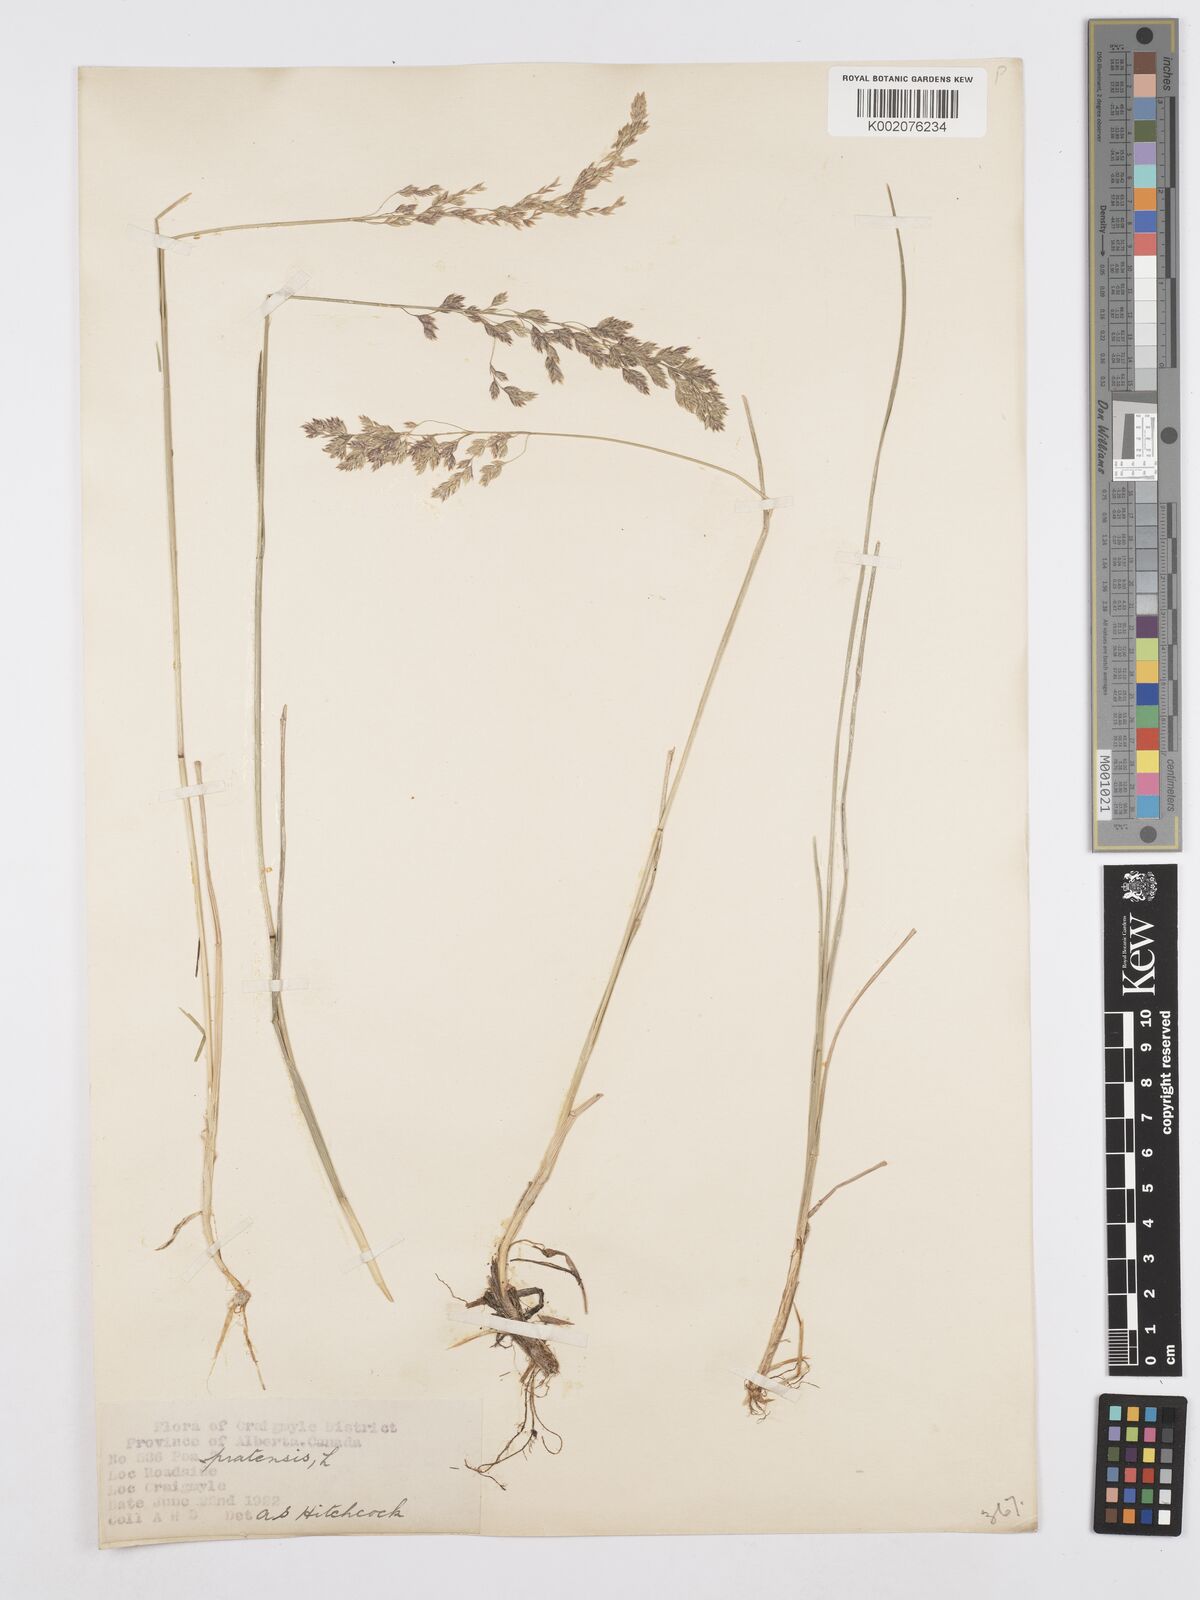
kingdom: Plantae
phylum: Tracheophyta
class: Liliopsida
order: Poales
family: Poaceae
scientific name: Poaceae
